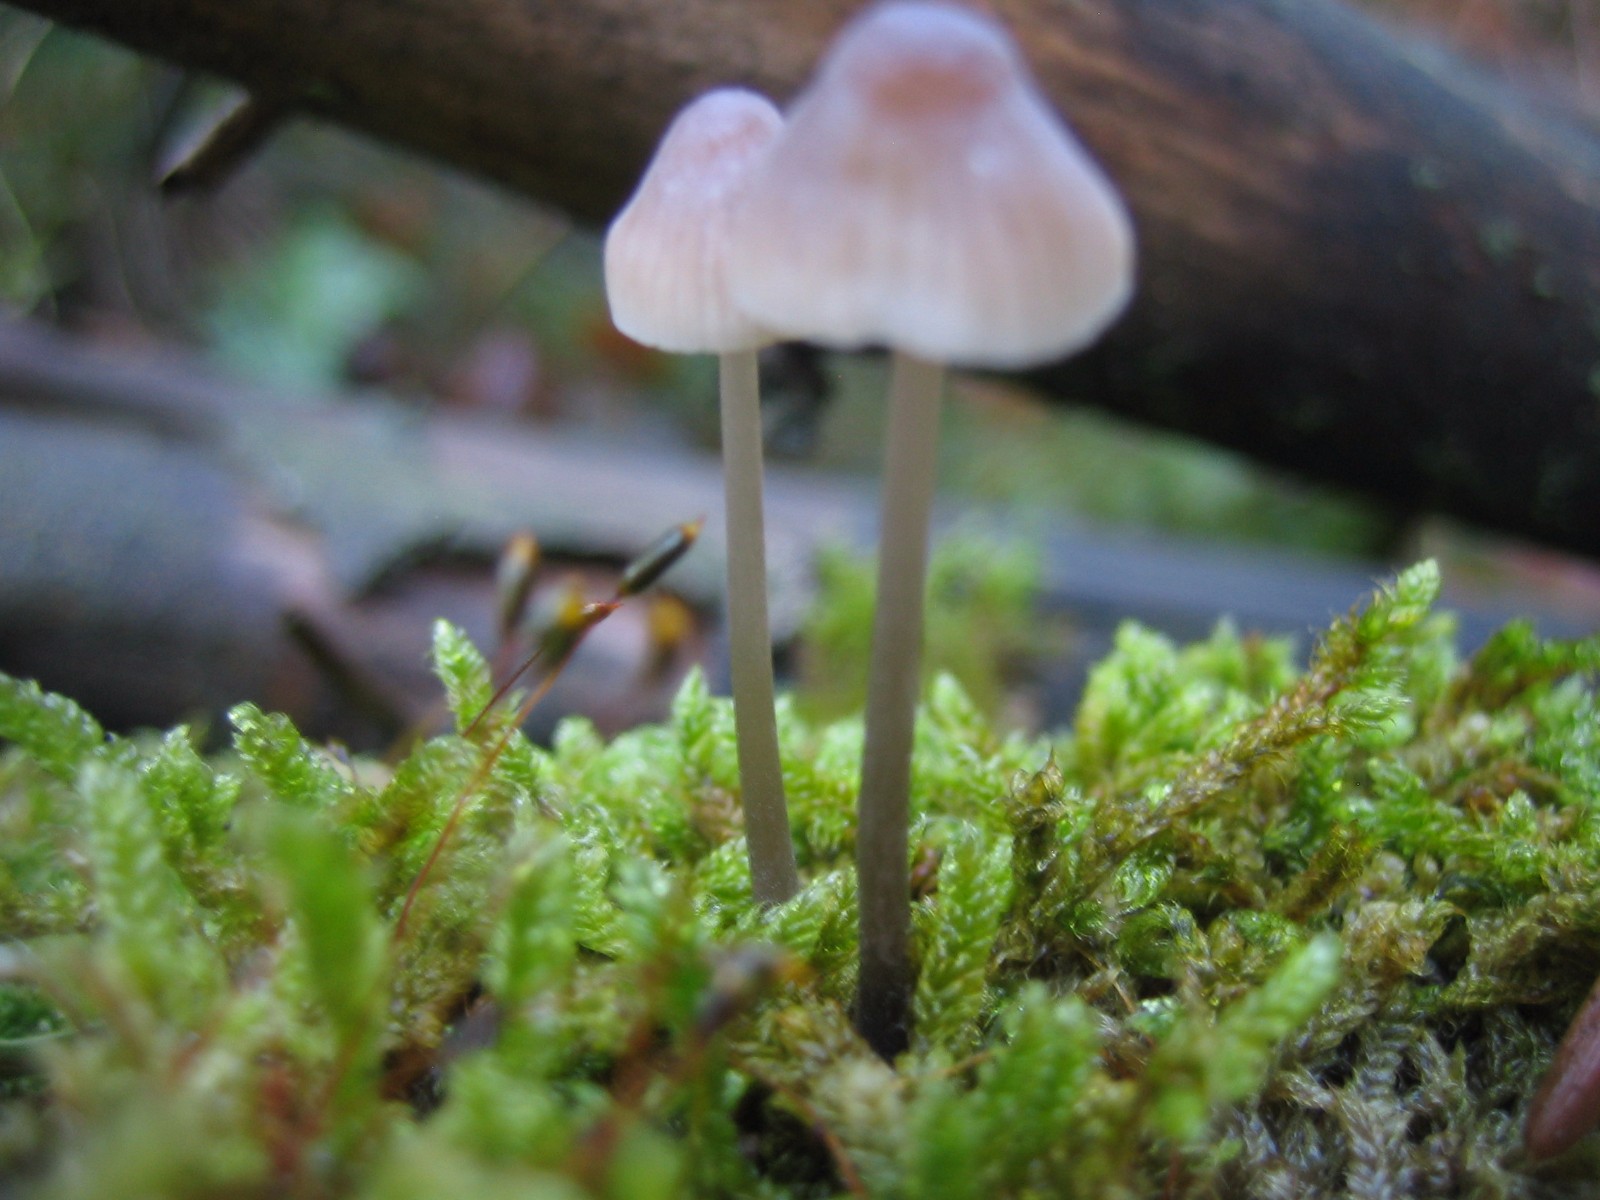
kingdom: Fungi
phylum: Basidiomycota
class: Agaricomycetes
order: Agaricales
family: Mycenaceae
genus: Mycena
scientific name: Mycena metata
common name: rødlig huesvamp
